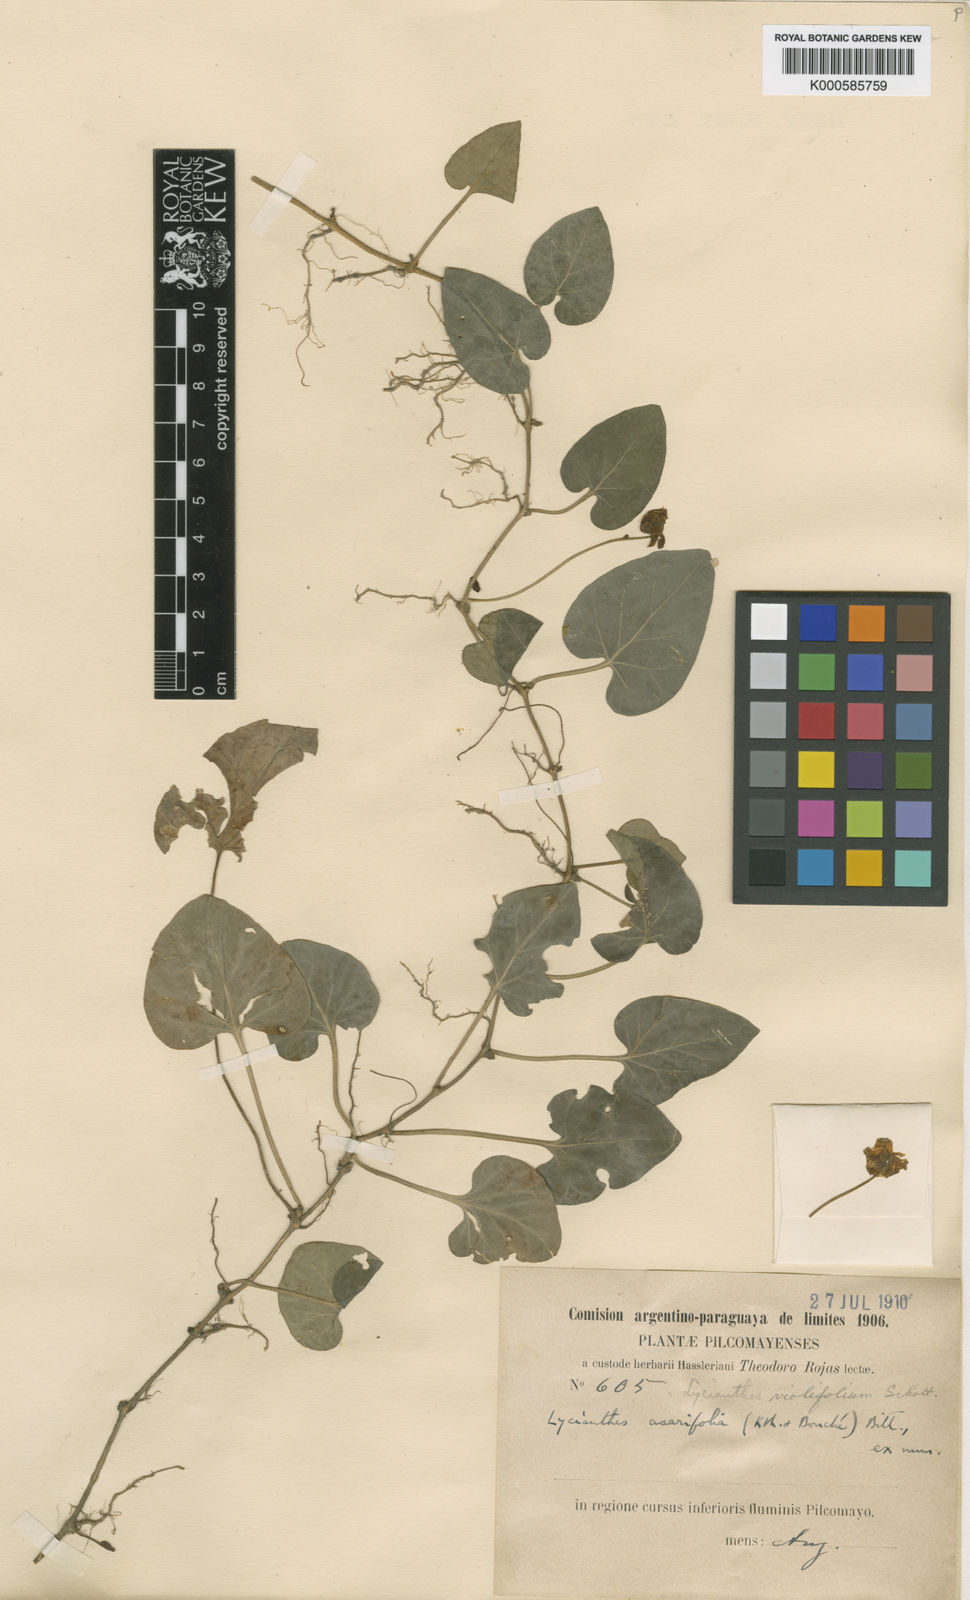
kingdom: Plantae
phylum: Tracheophyta
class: Magnoliopsida
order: Solanales
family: Solanaceae
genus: Lycianthes
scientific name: Lycianthes
